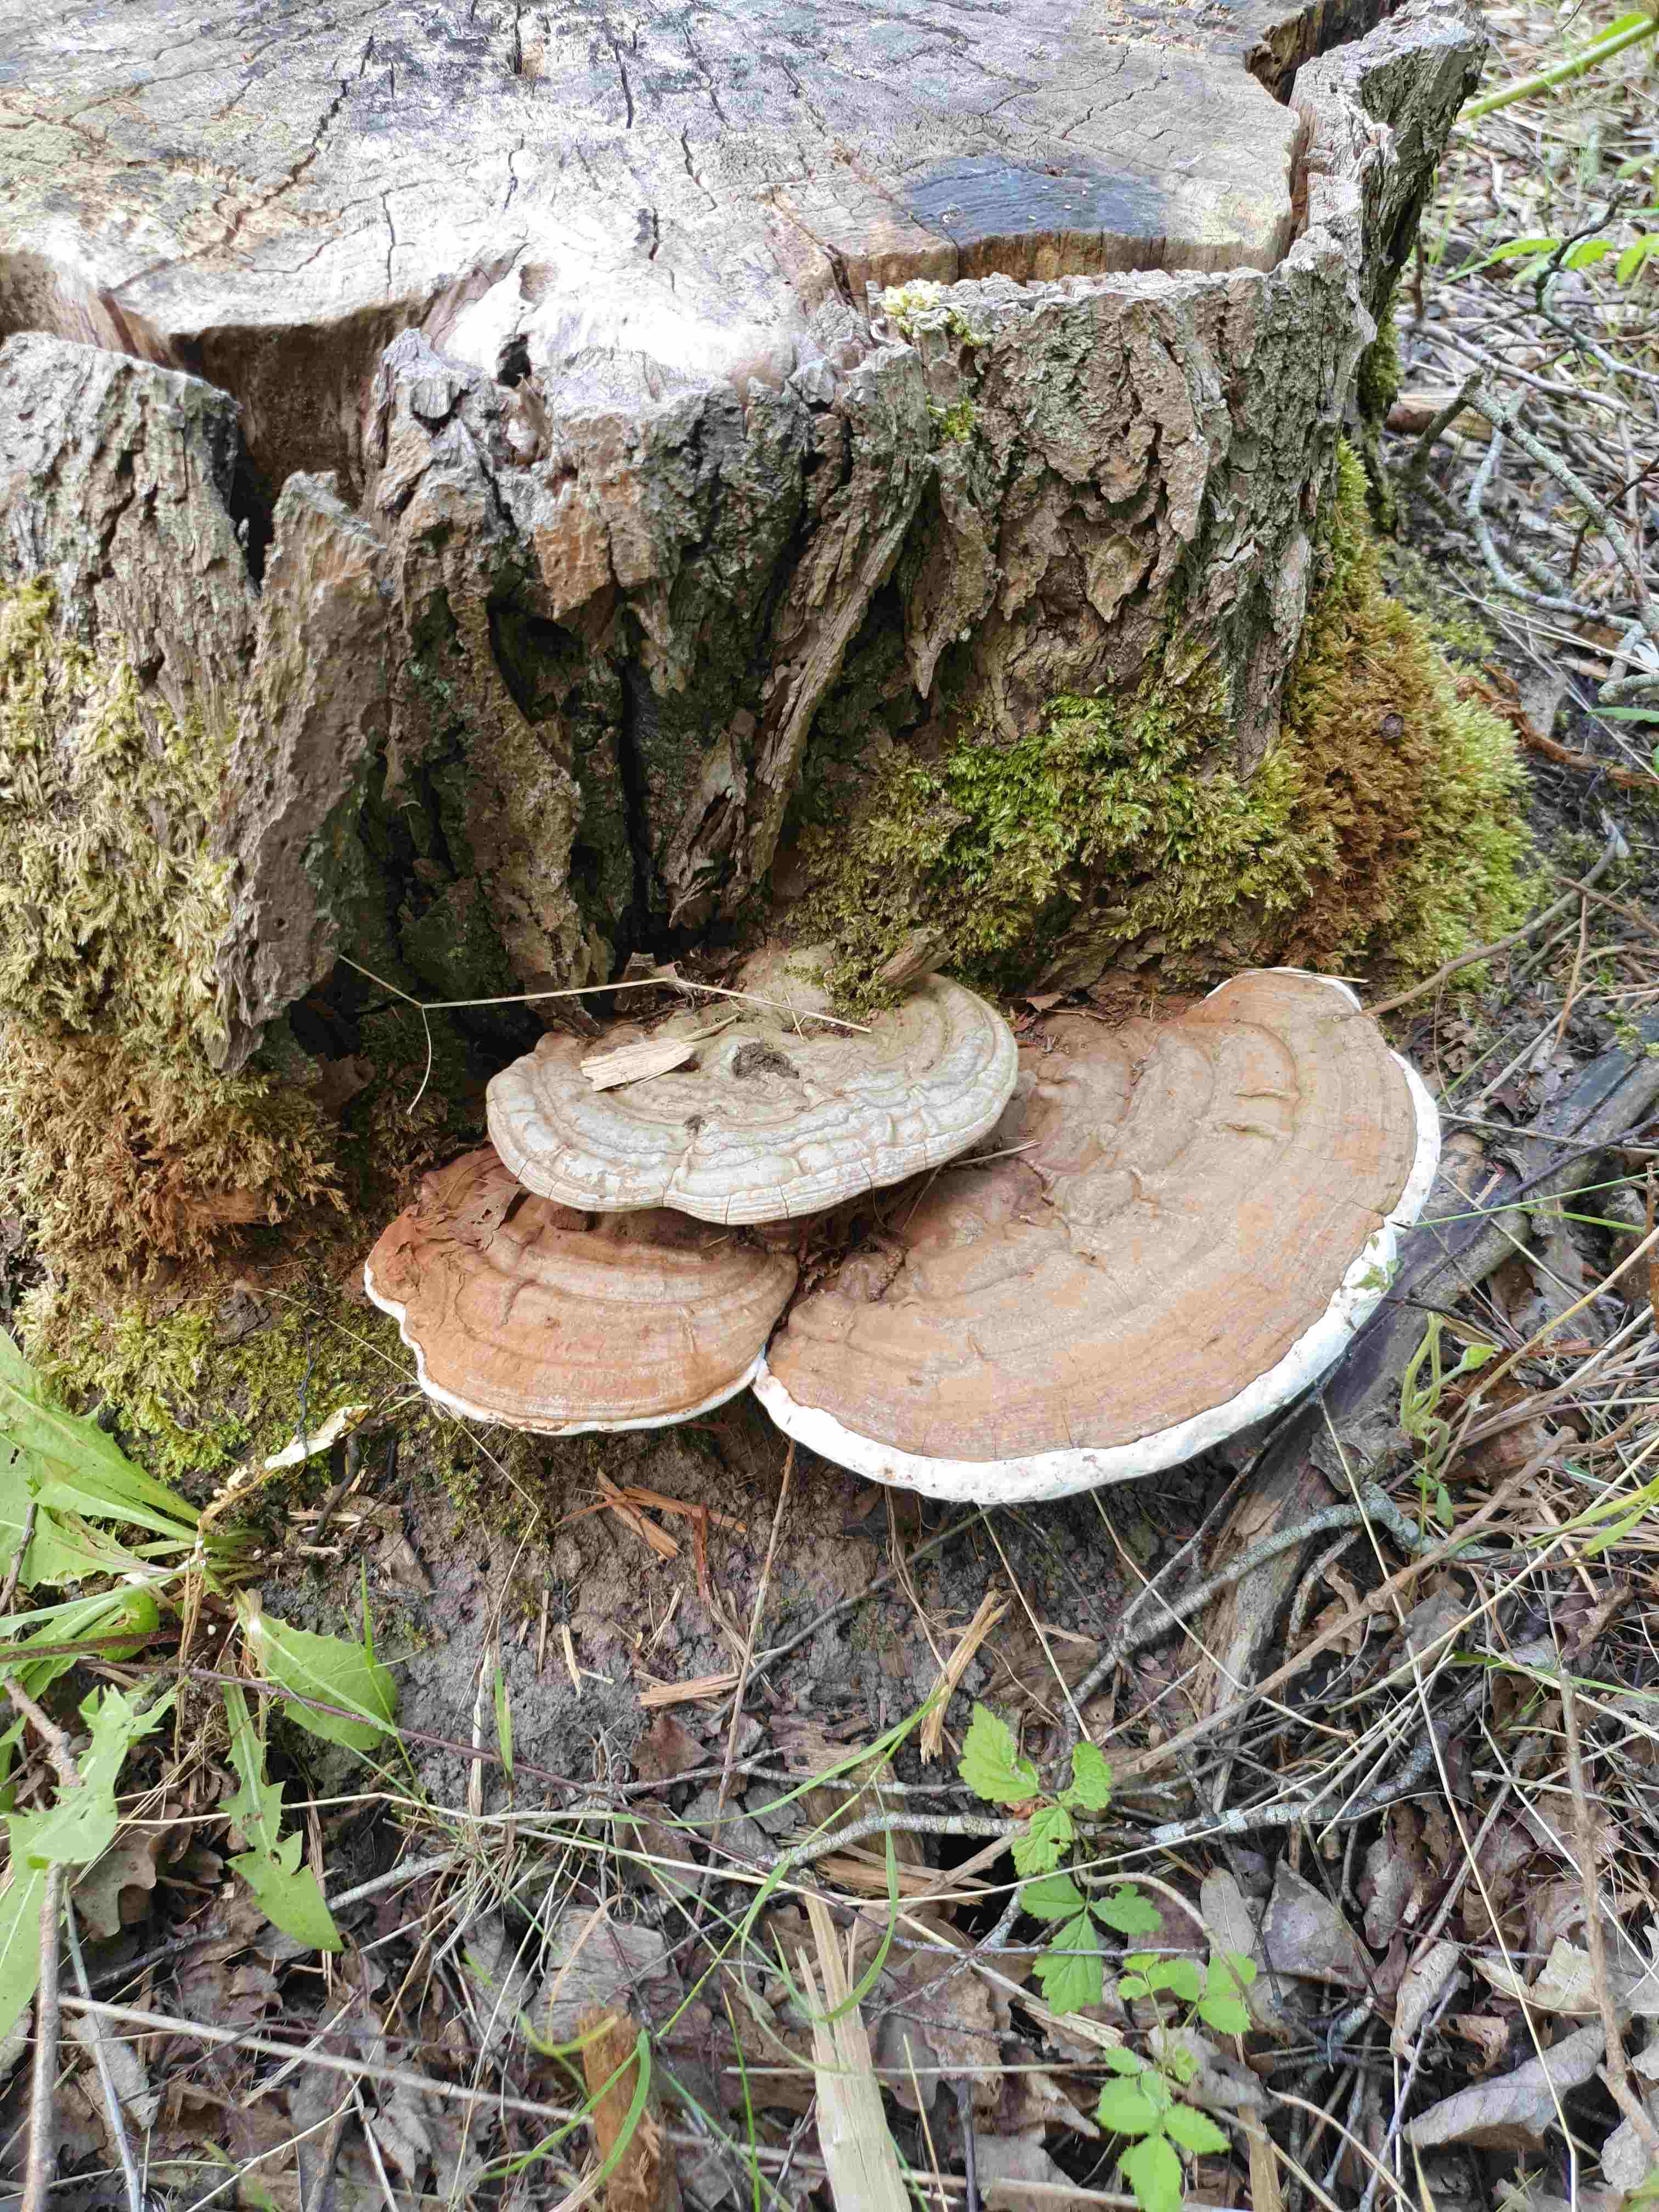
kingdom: Fungi
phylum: Basidiomycota
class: Agaricomycetes
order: Polyporales
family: Polyporaceae
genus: Ganoderma
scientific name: Ganoderma applanatum
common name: flad lakporesvamp
